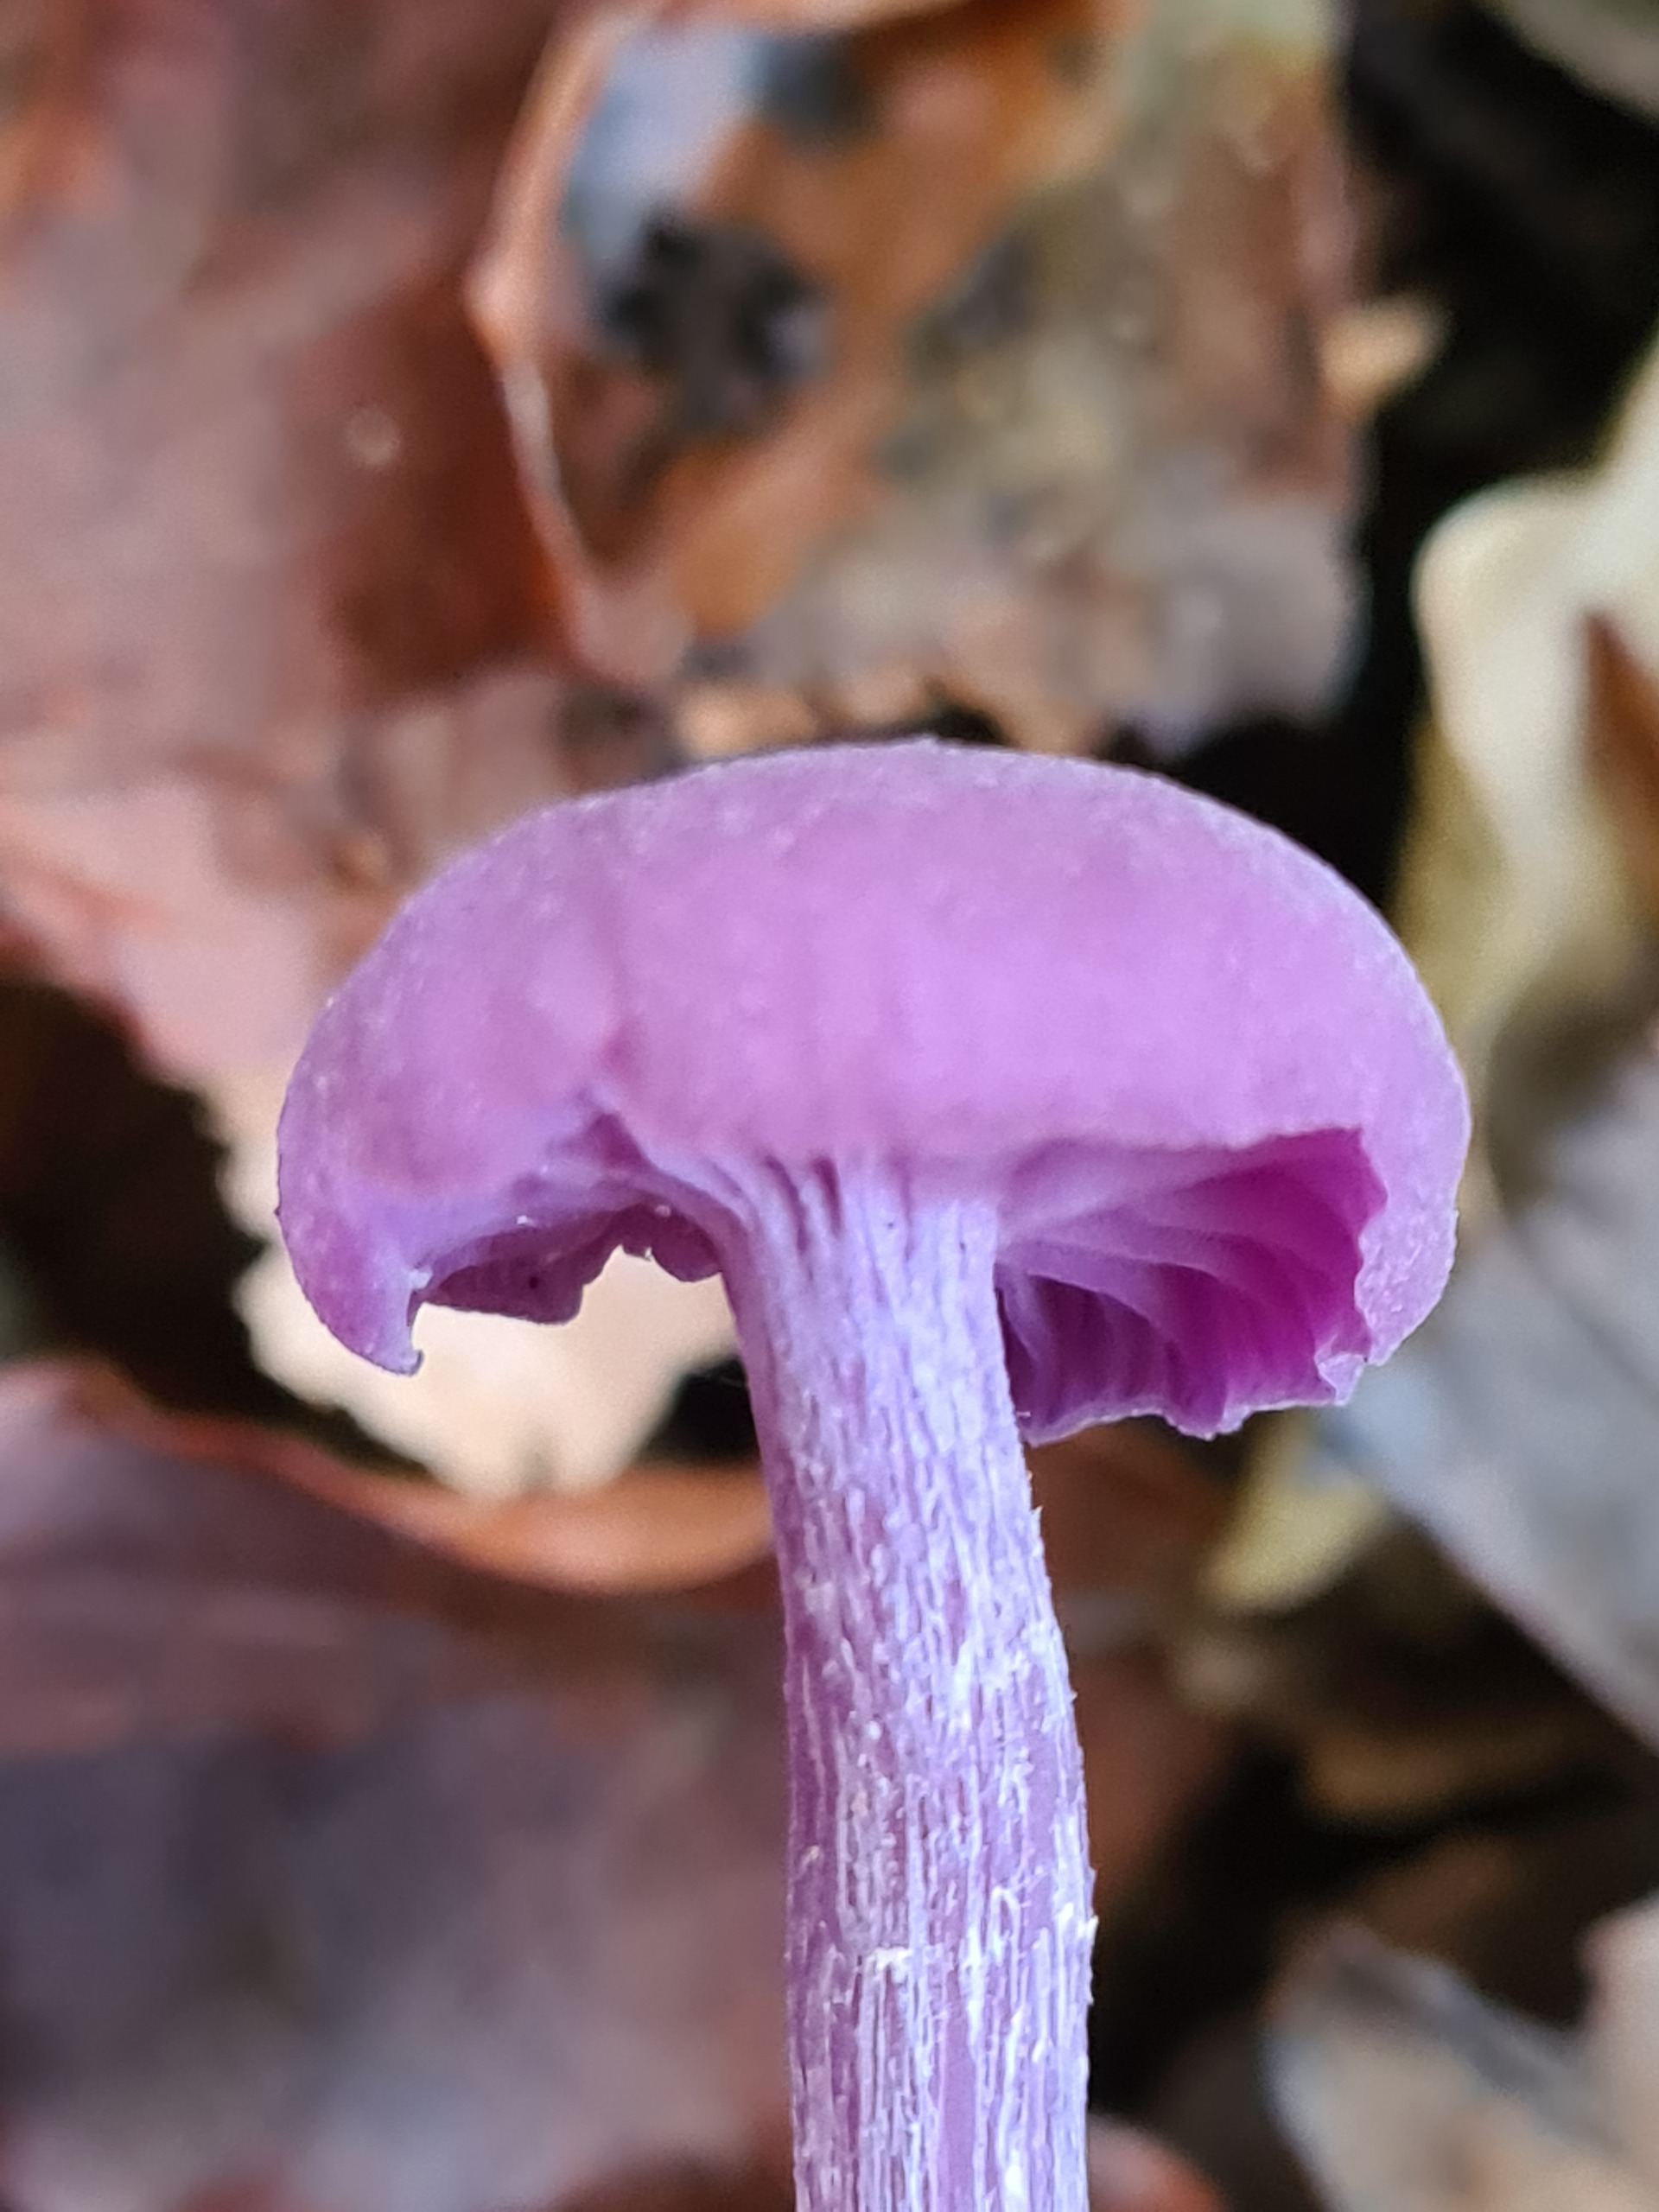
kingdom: Fungi
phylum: Basidiomycota
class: Agaricomycetes
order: Agaricales
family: Hydnangiaceae
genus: Laccaria
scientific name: Laccaria amethystina
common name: Violet ametysthat
